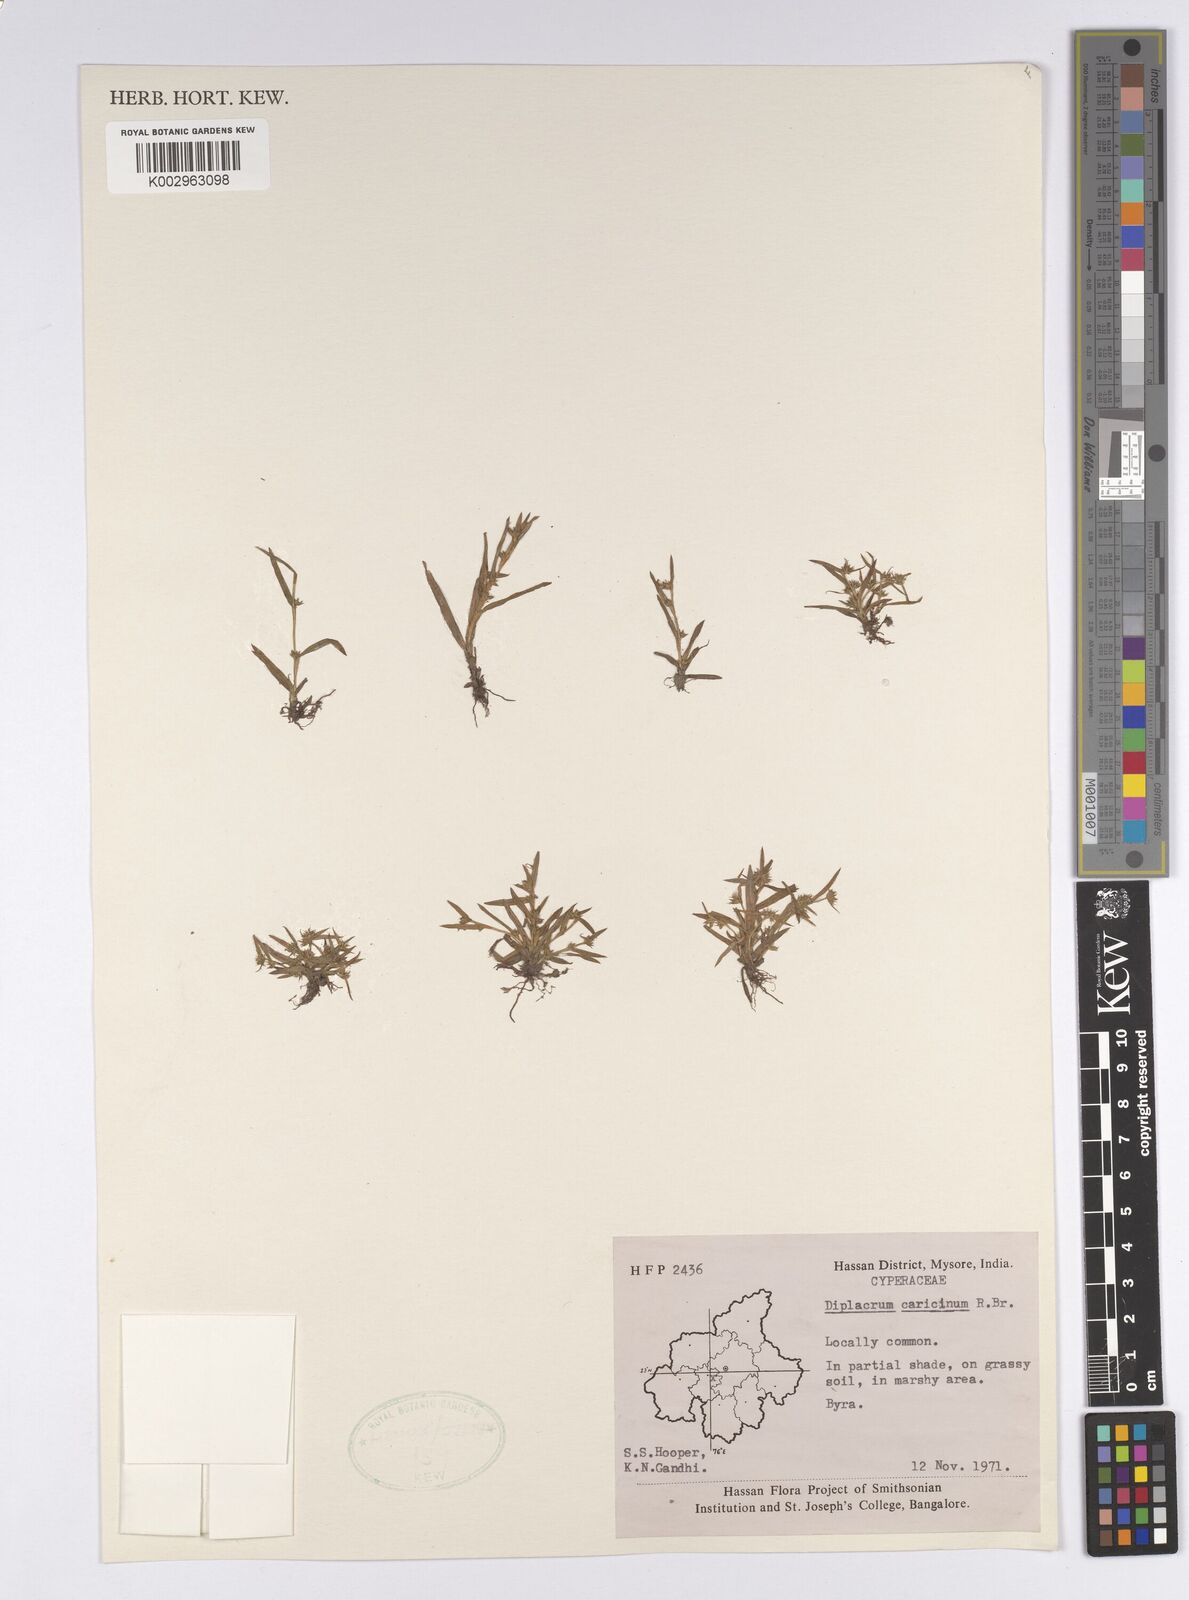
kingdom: Plantae
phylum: Tracheophyta
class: Liliopsida
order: Poales
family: Cyperaceae
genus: Diplacrum
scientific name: Diplacrum caricinum
